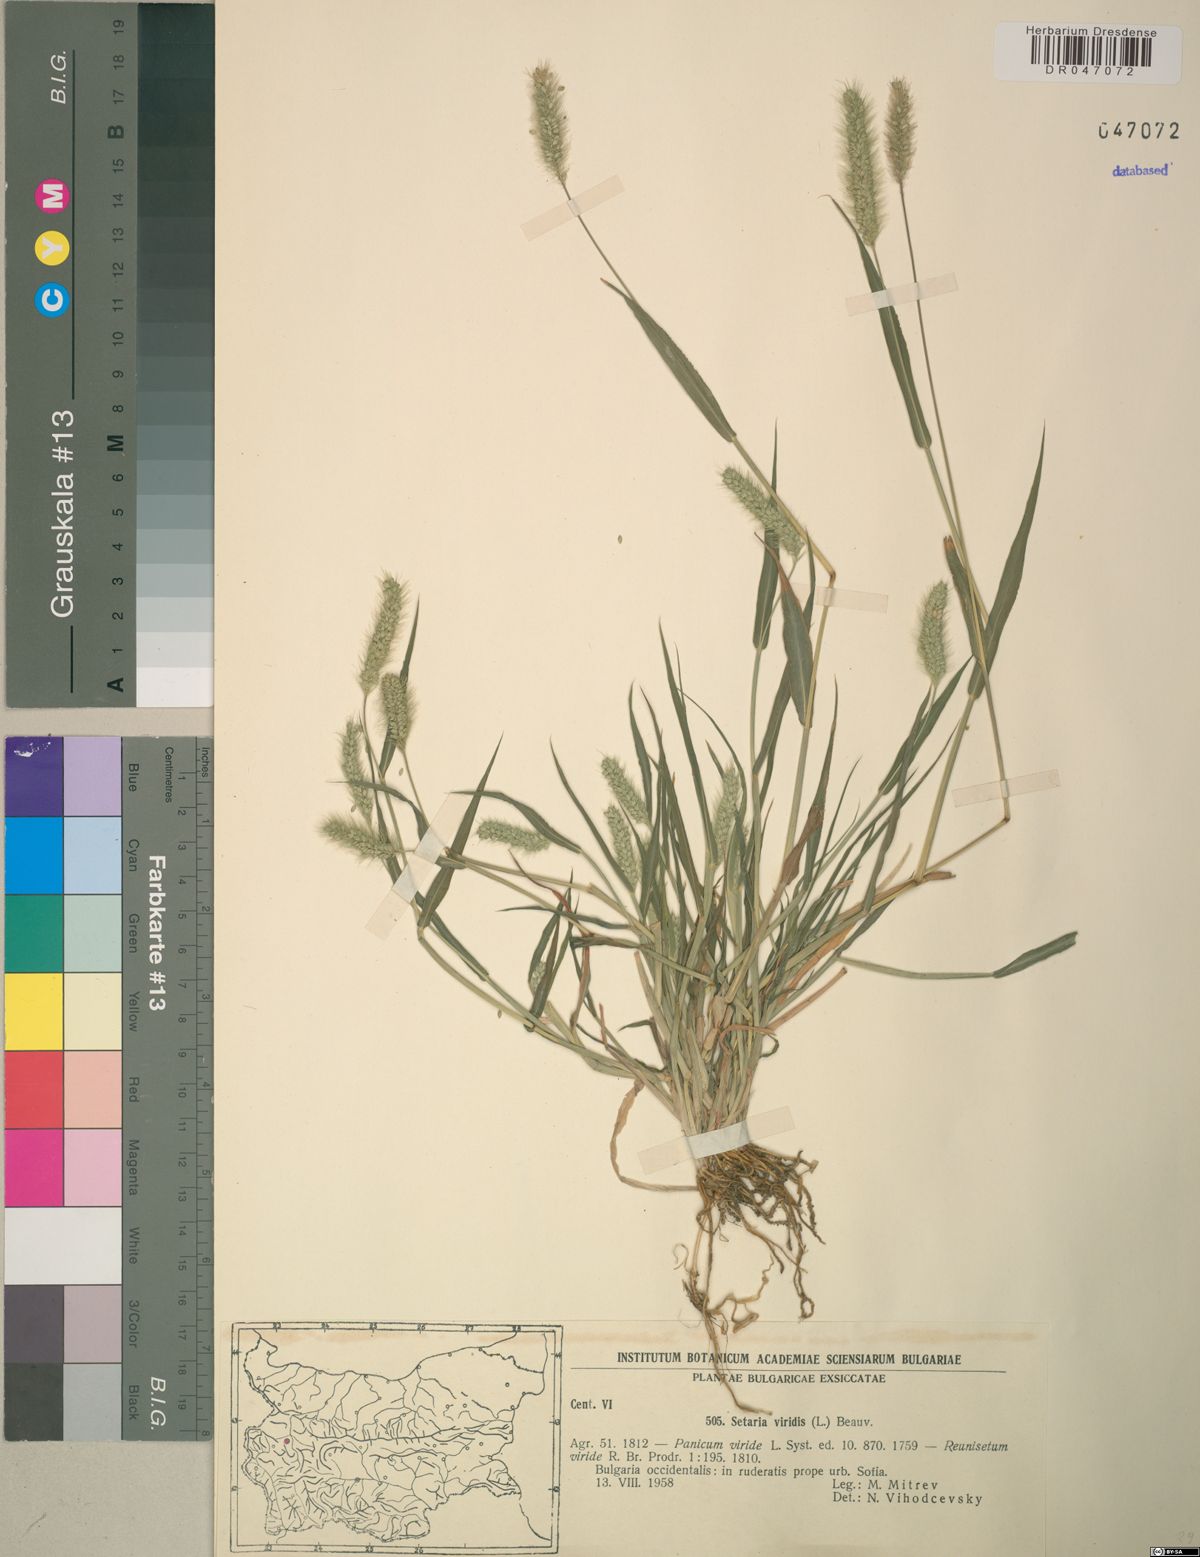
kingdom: Plantae
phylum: Tracheophyta
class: Liliopsida
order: Poales
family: Poaceae
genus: Setaria
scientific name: Setaria viridis
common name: Green bristlegrass
